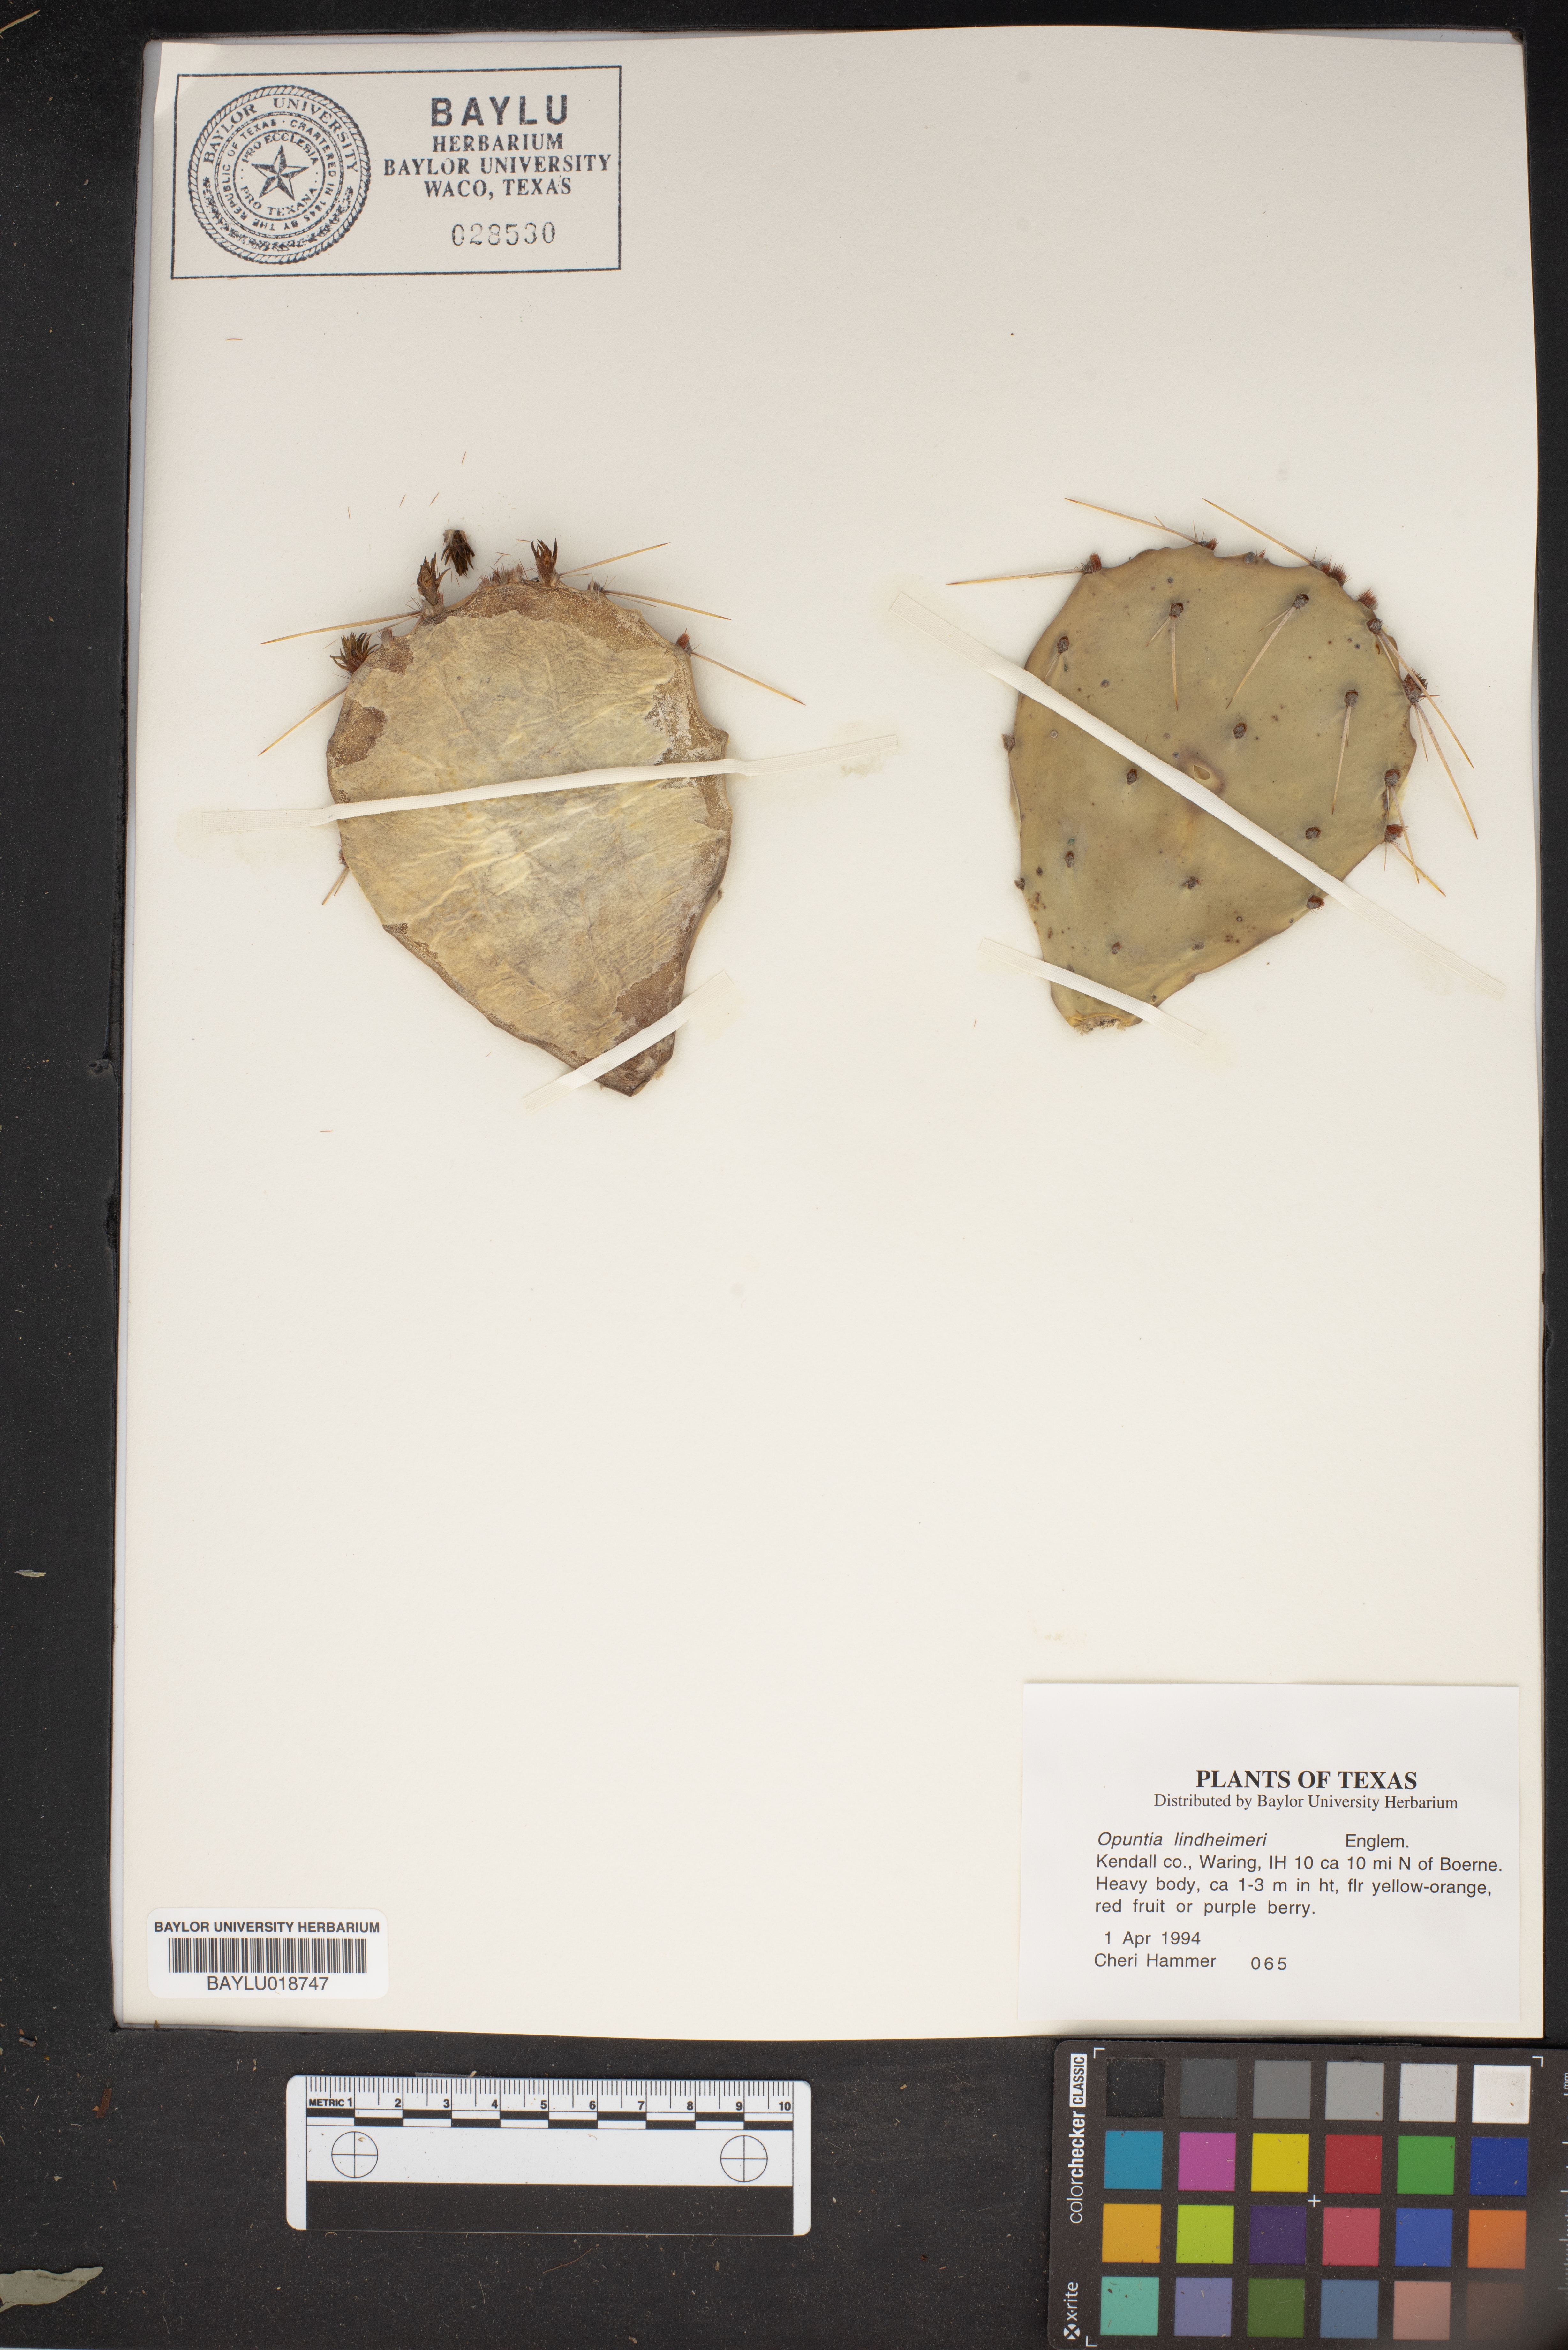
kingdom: Plantae
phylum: Tracheophyta
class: Magnoliopsida
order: Caryophyllales
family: Cactaceae
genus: Opuntia
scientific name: Opuntia engelmannii
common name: Cactus-apple
